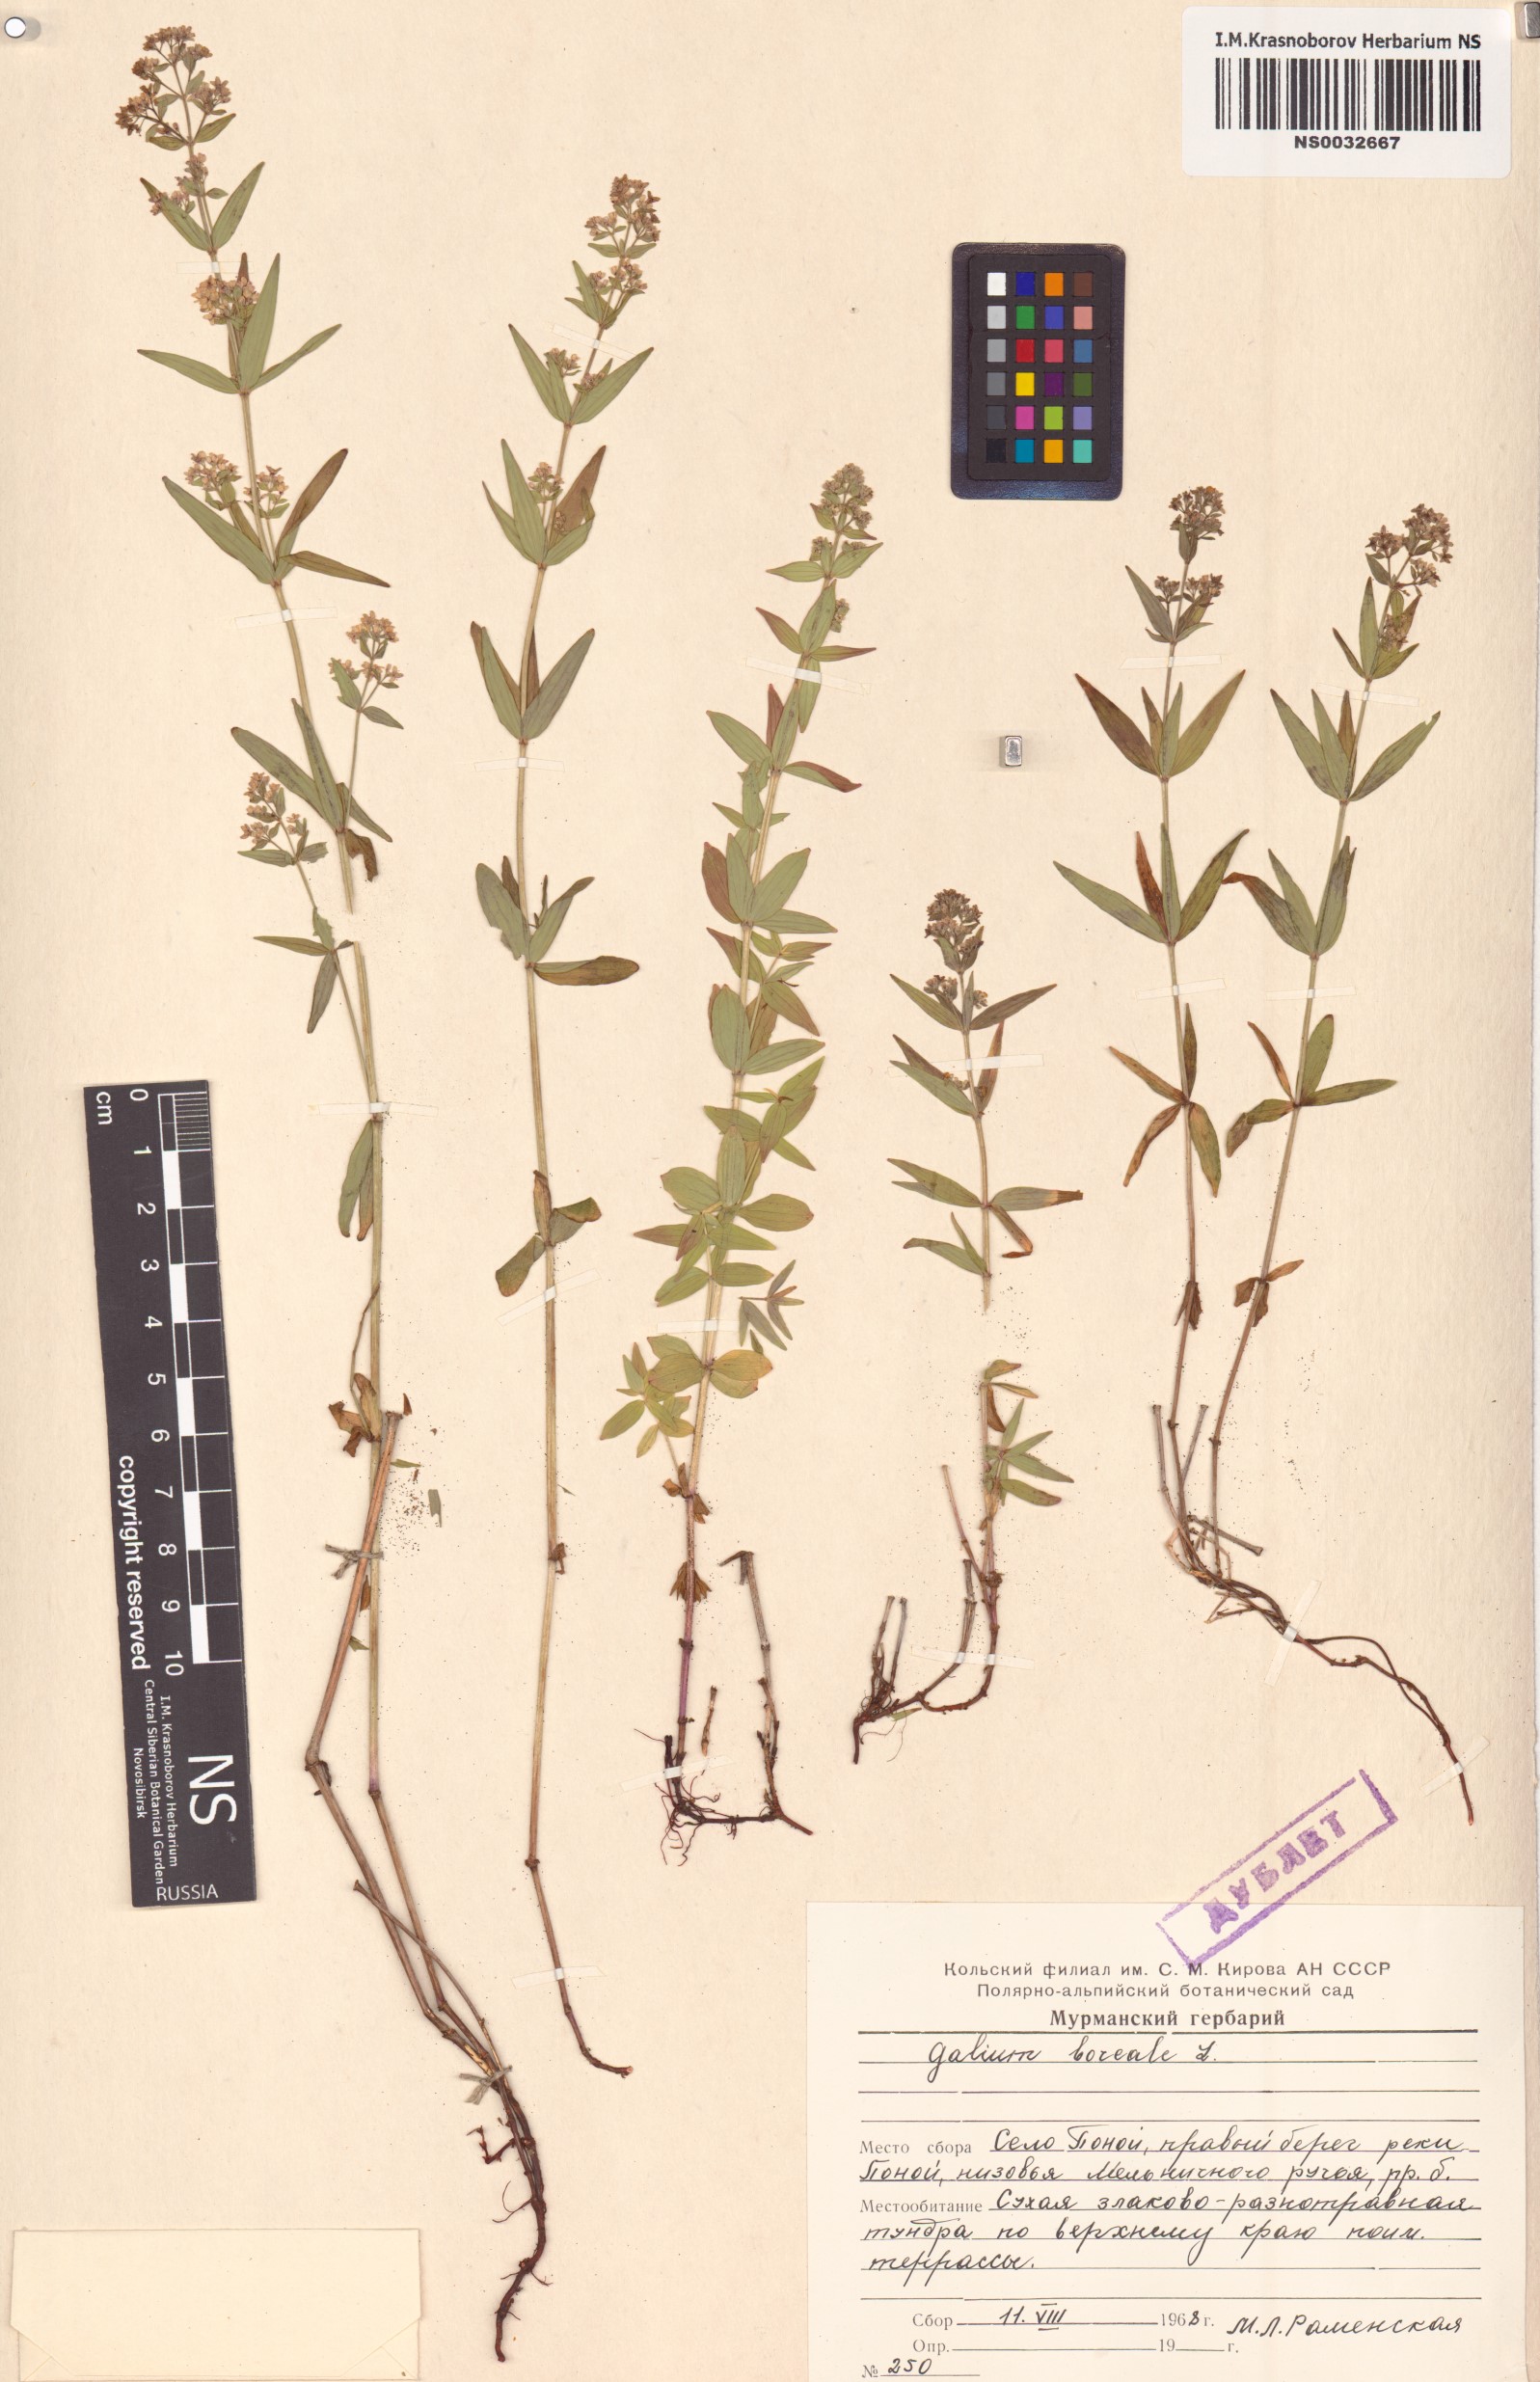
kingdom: Plantae
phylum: Tracheophyta
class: Magnoliopsida
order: Gentianales
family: Rubiaceae
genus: Galium
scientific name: Galium boreale
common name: Northern bedstraw
